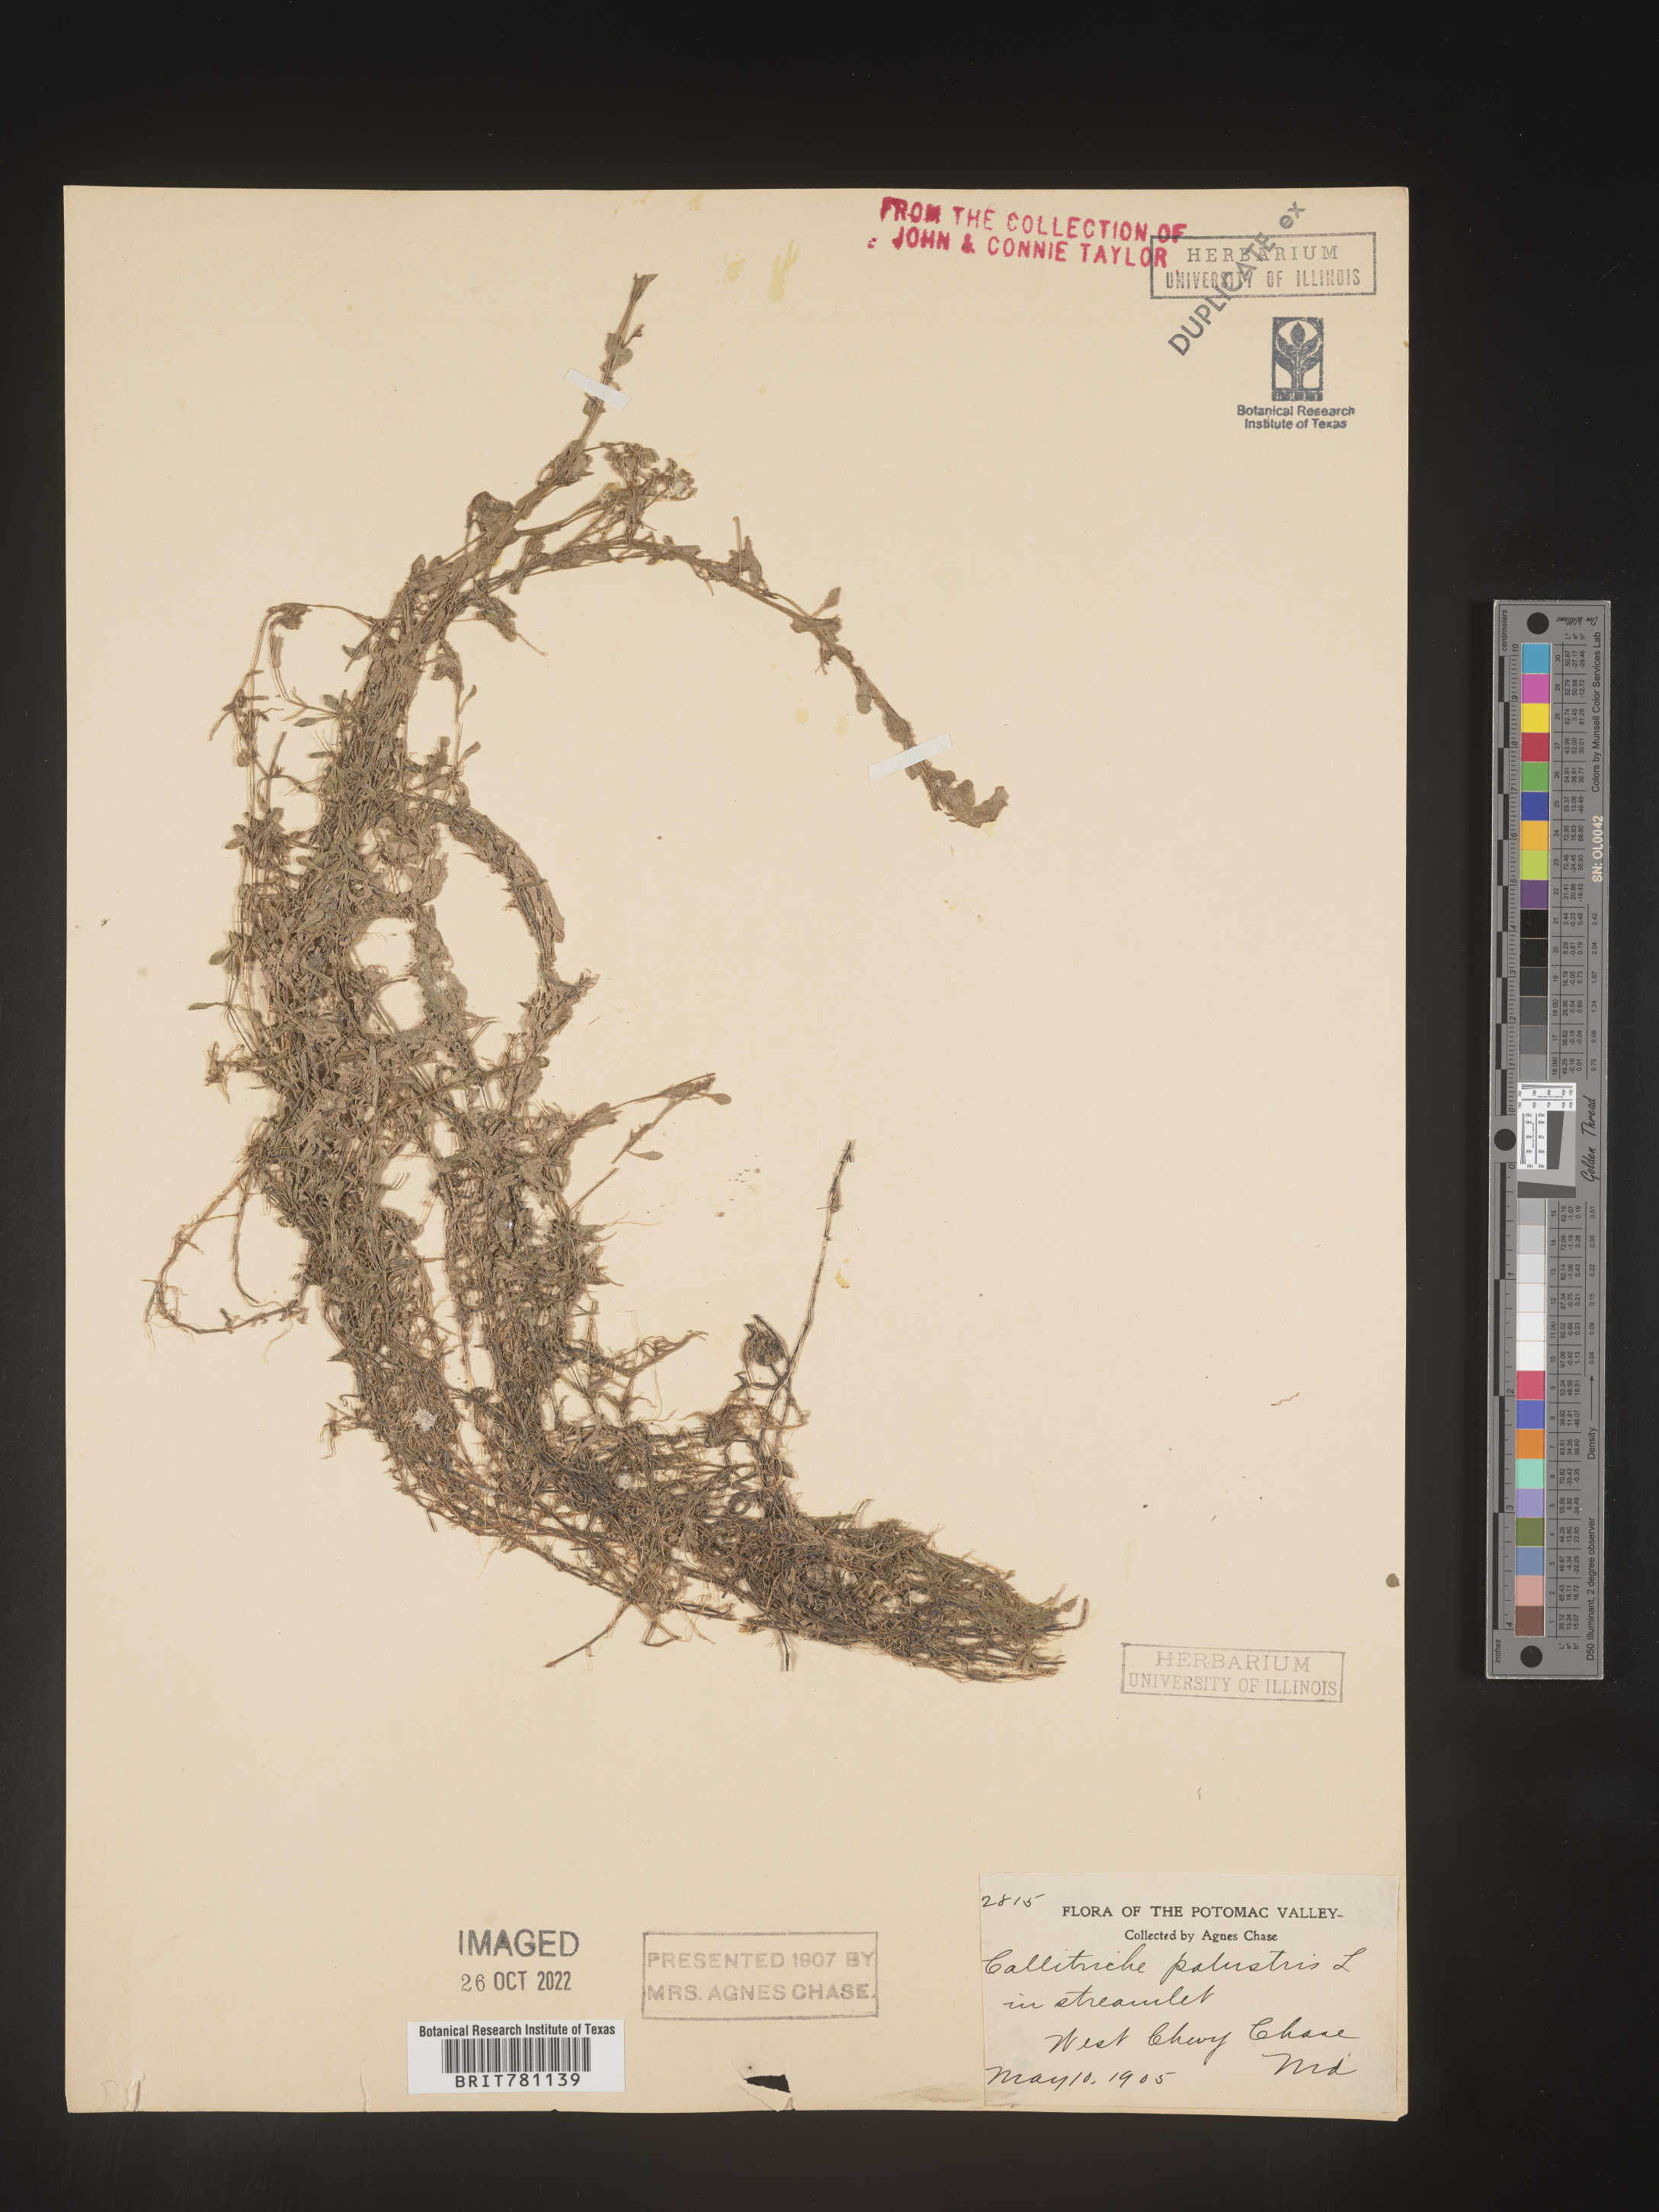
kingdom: Plantae
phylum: Tracheophyta
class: Magnoliopsida
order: Lamiales
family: Plantaginaceae
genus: Callitriche
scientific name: Callitriche
